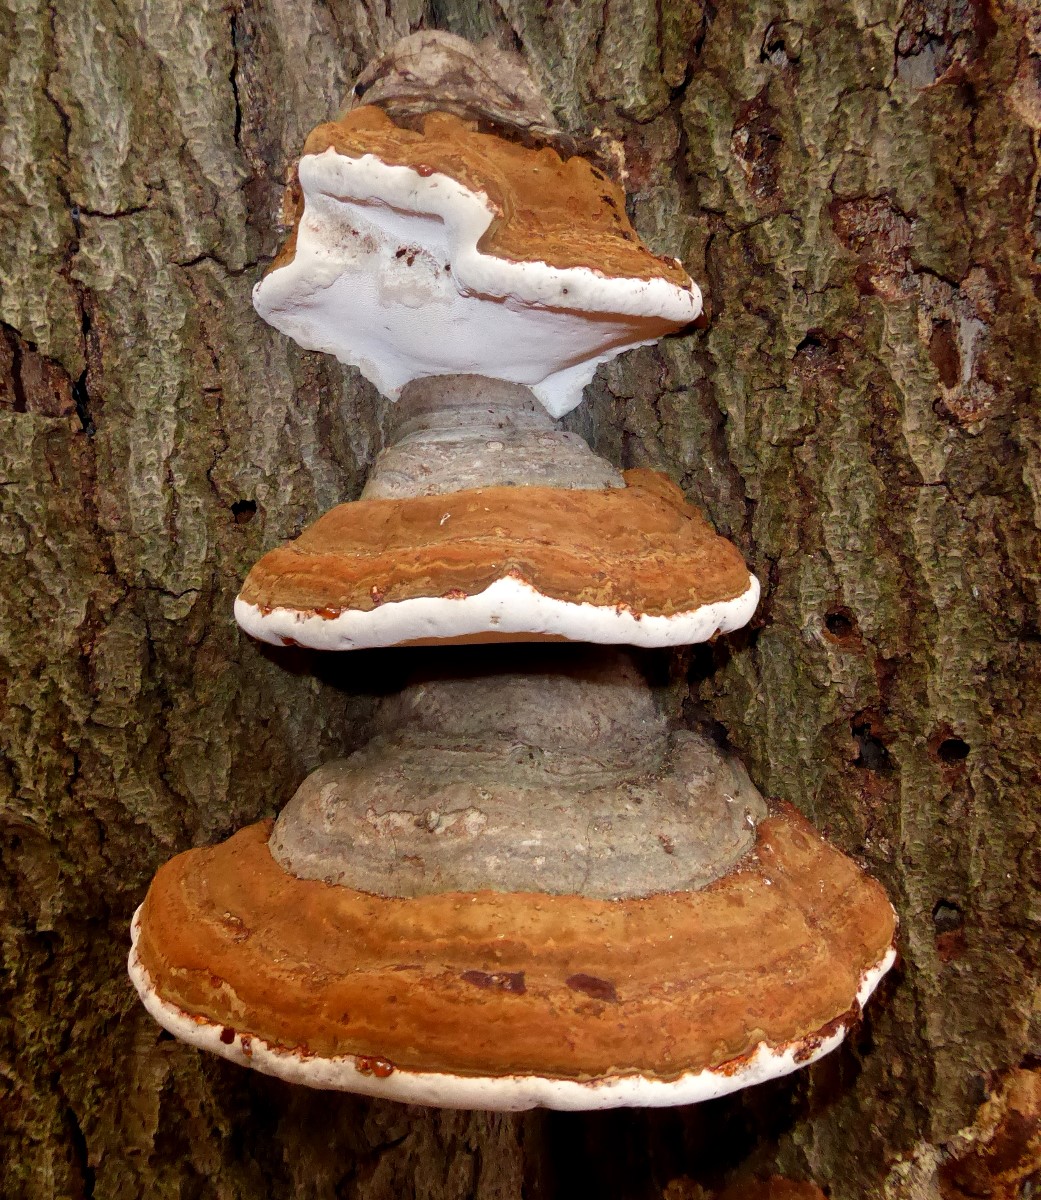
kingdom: Fungi
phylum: Basidiomycota
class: Agaricomycetes
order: Polyporales
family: Polyporaceae
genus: Fomes
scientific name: Fomes fomentarius
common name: tøndersvamp
